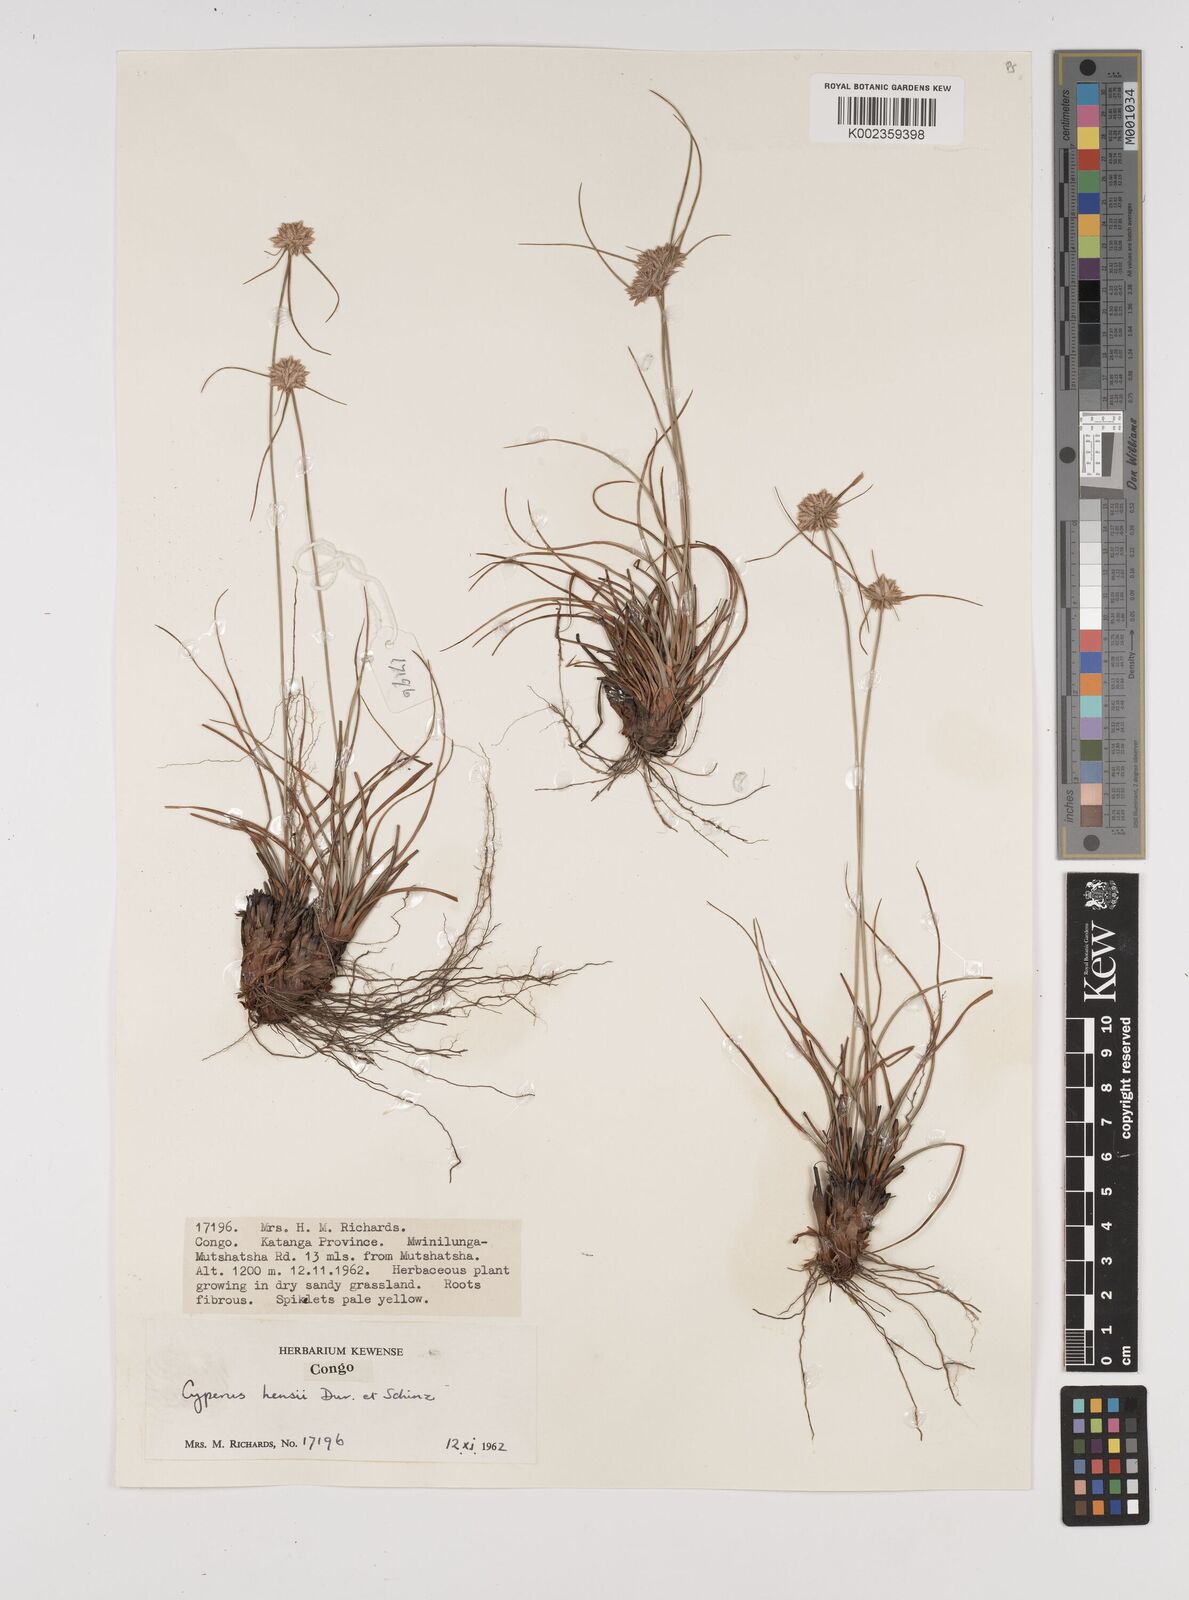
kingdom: Plantae
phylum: Tracheophyta
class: Liliopsida
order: Poales
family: Cyperaceae
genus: Cyperus
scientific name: Cyperus
